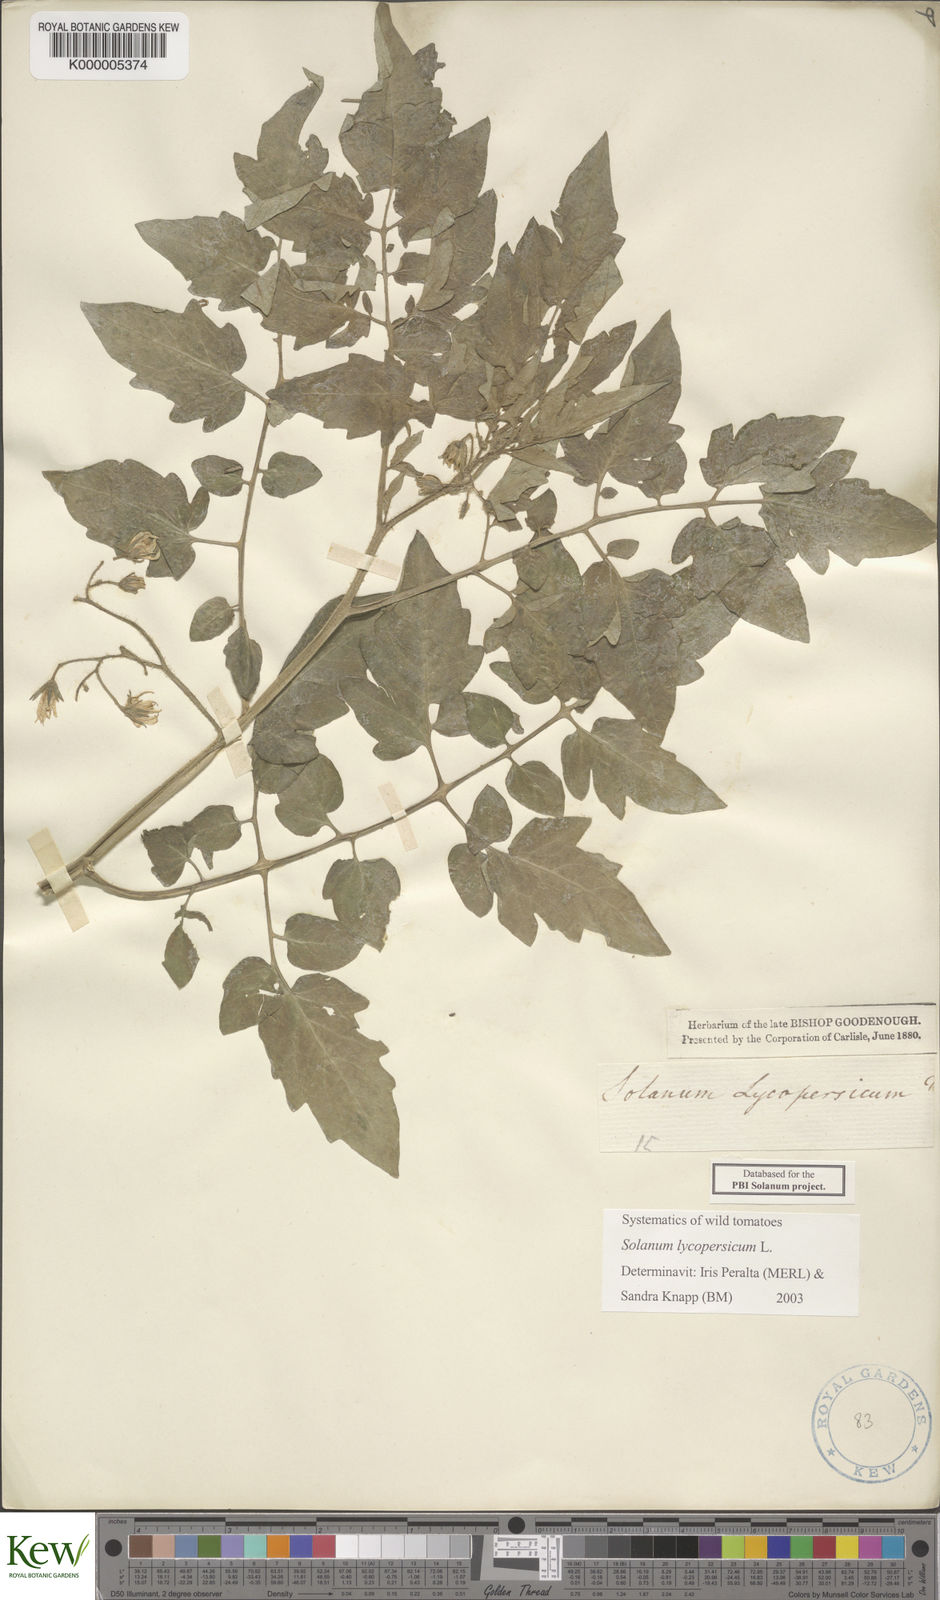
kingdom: Plantae
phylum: Tracheophyta
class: Magnoliopsida
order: Solanales
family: Solanaceae
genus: Solanum
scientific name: Solanum lycopersicum
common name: Garden tomato
